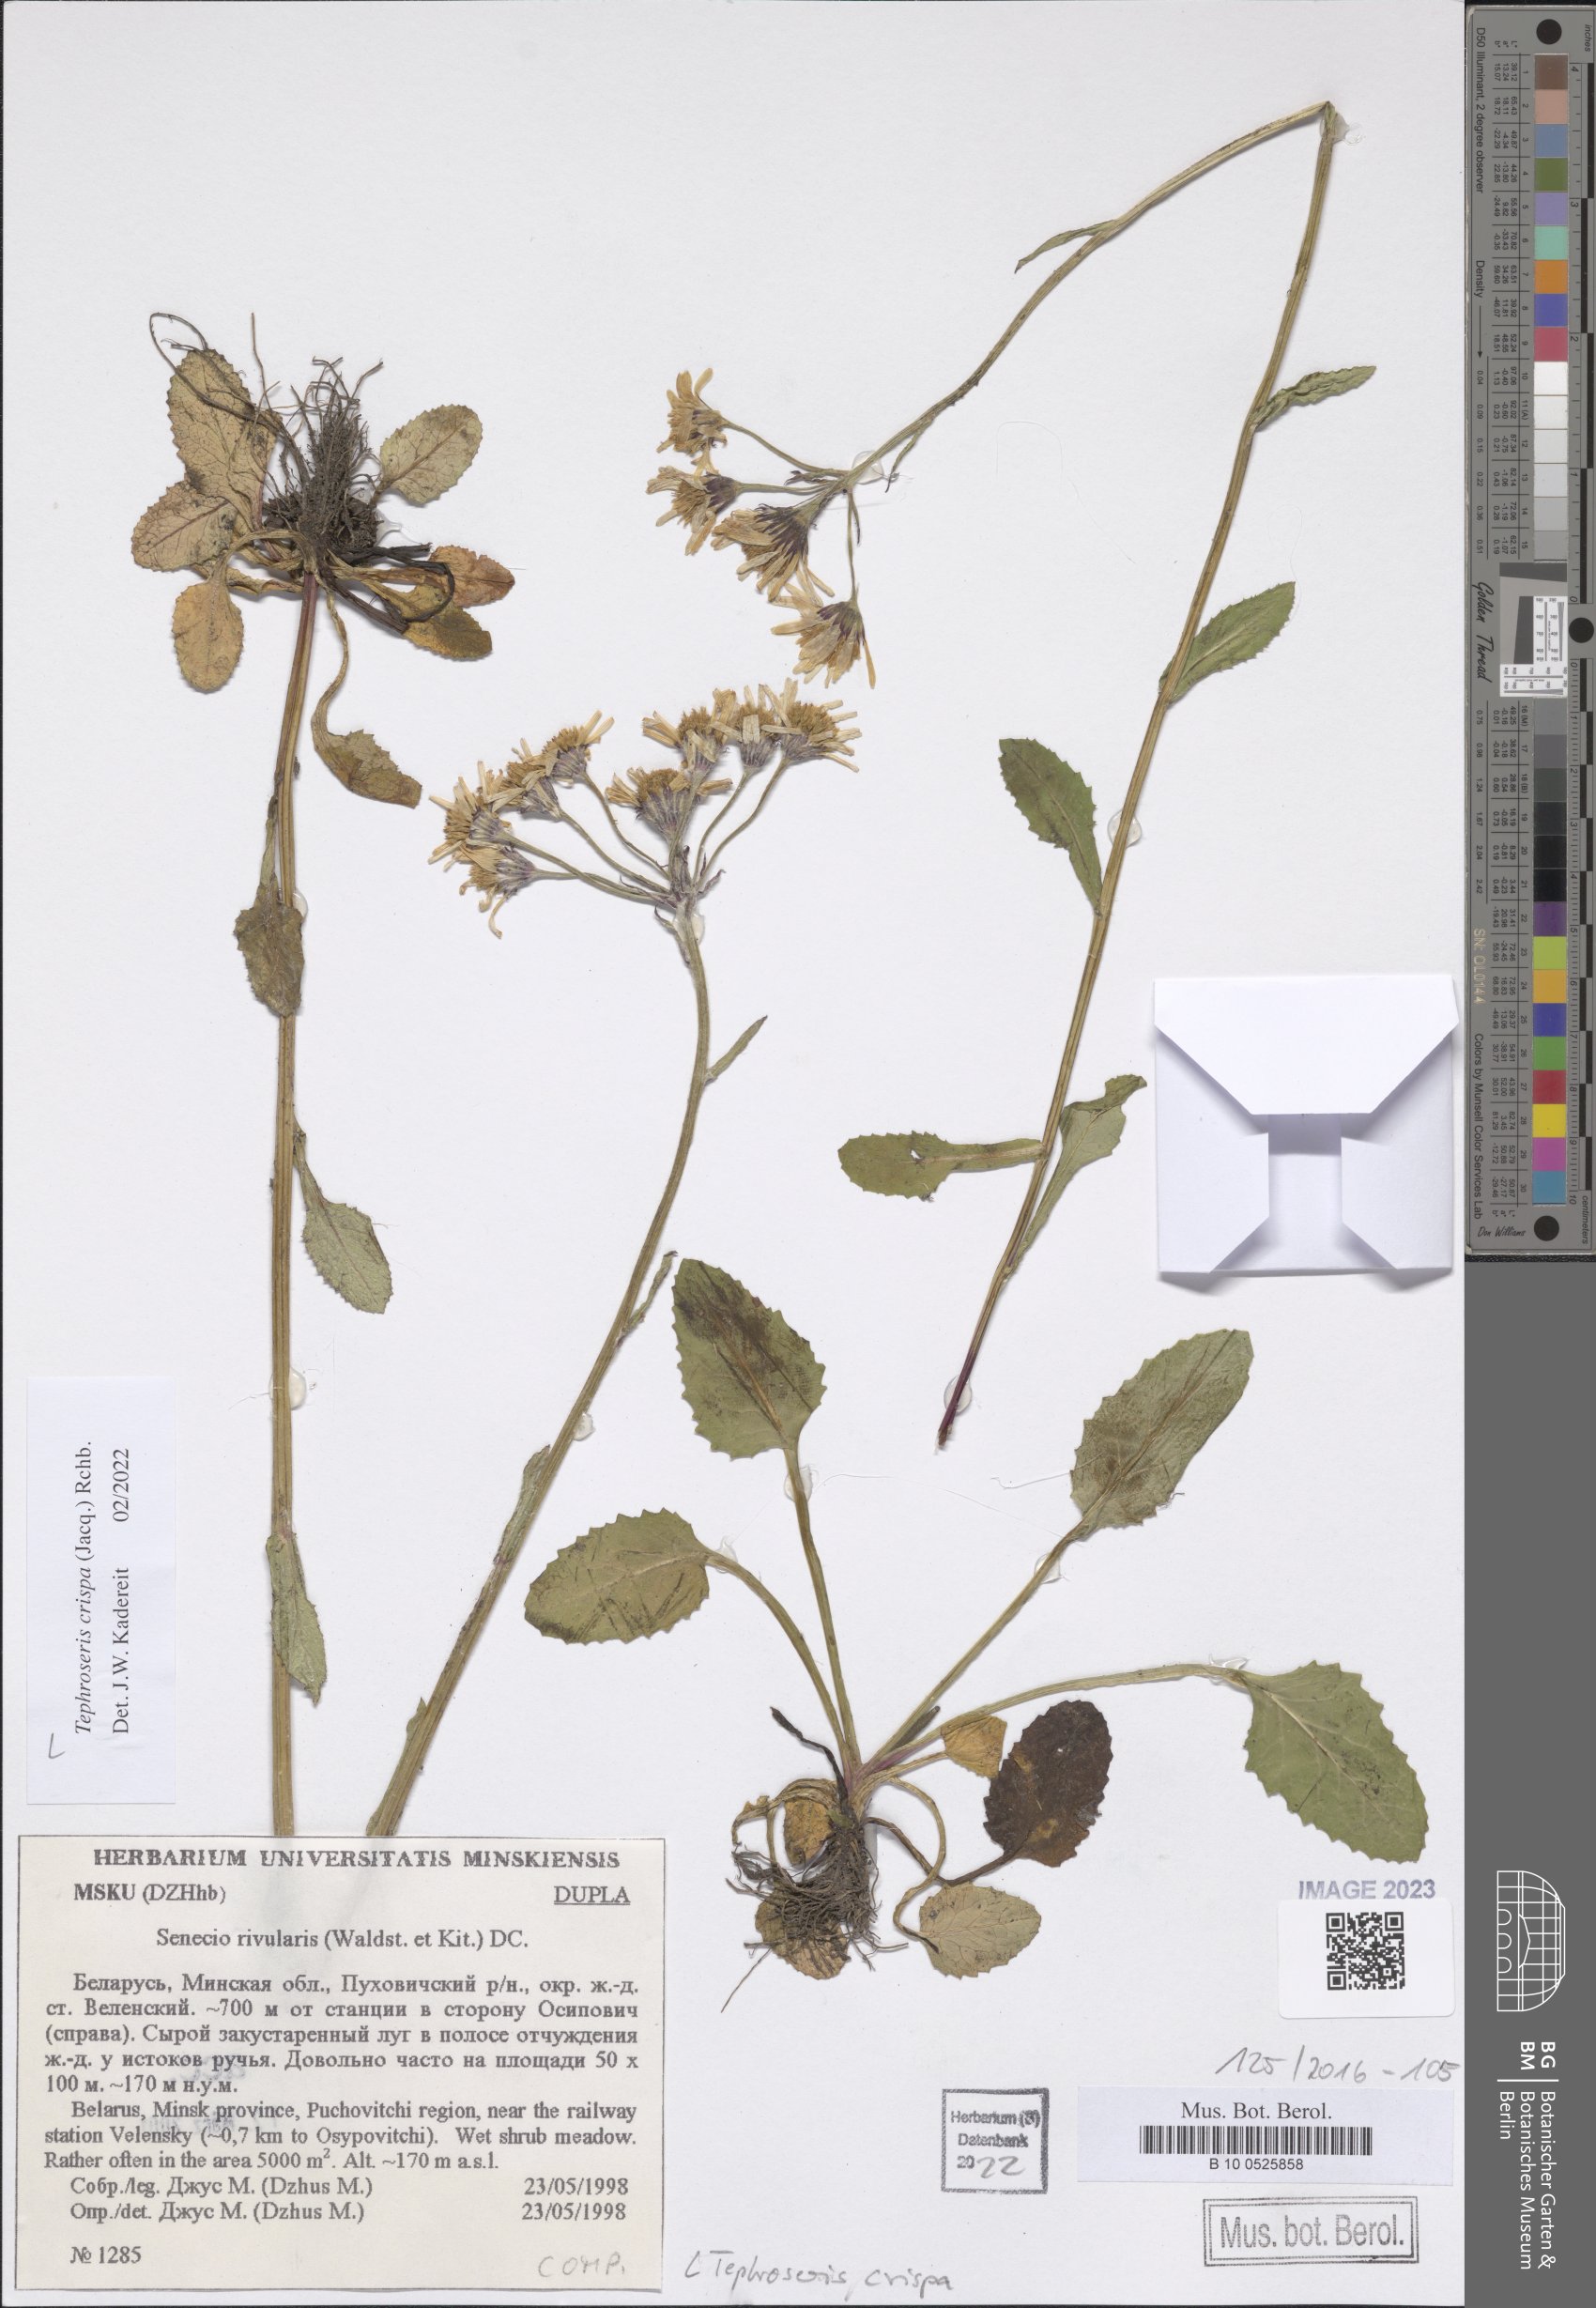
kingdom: Plantae
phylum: Tracheophyta
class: Magnoliopsida
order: Asterales
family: Asteraceae
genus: Tephroseris
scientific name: Tephroseris crispa
